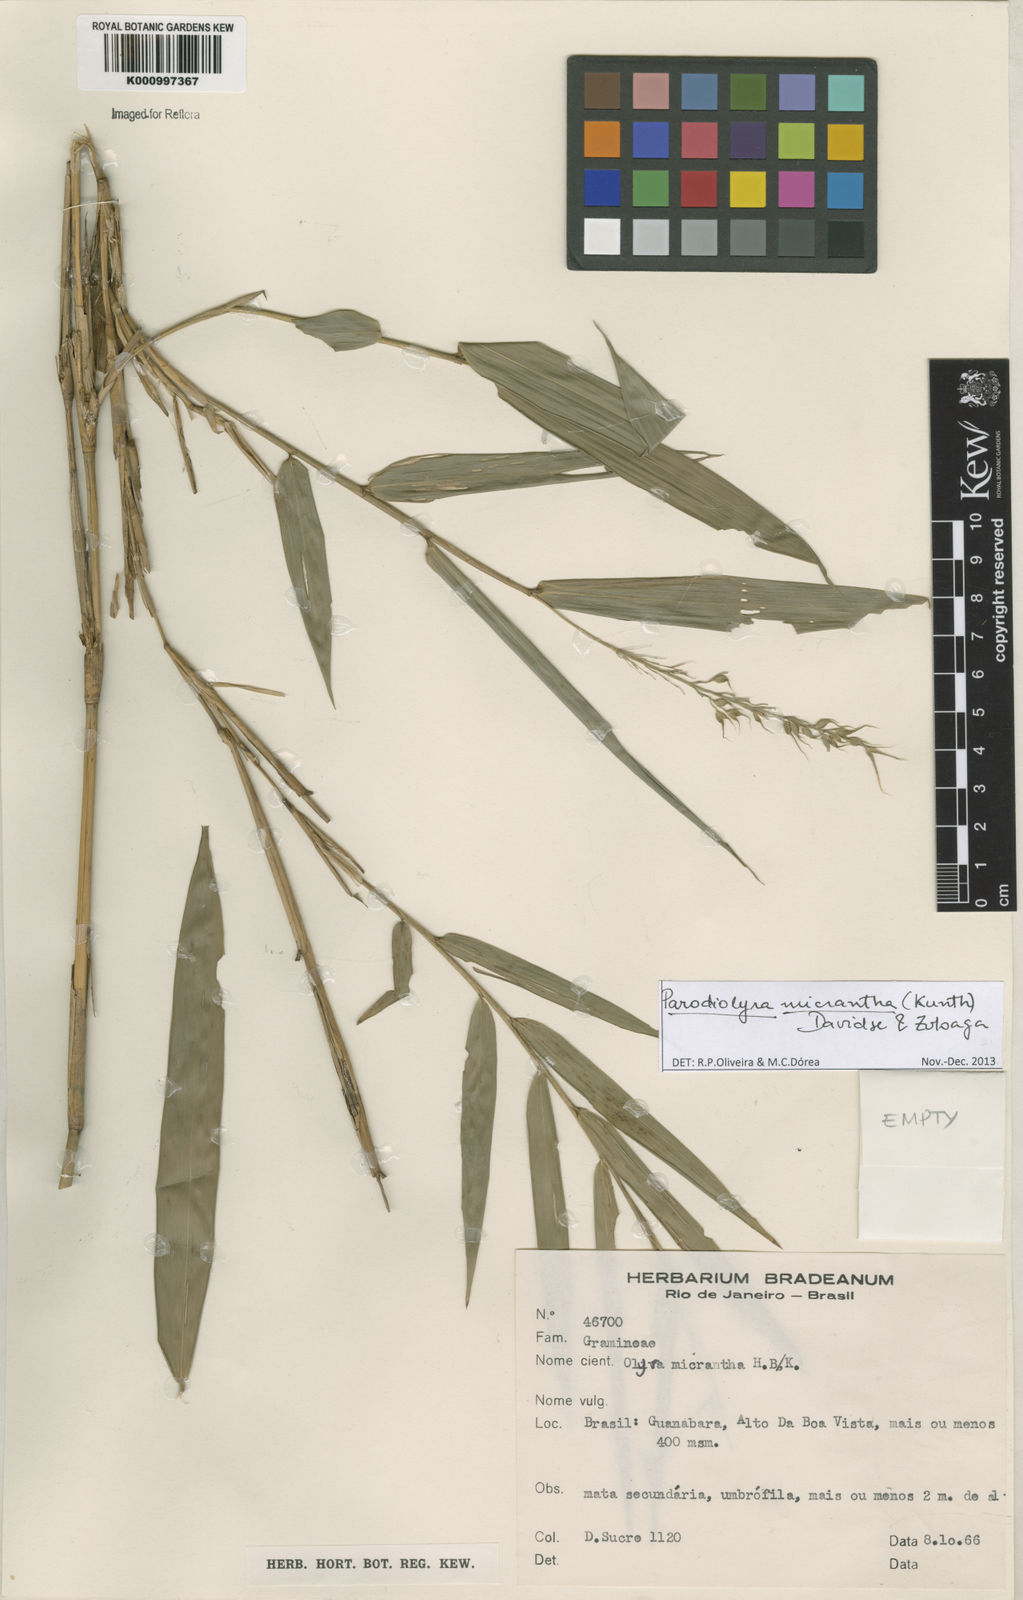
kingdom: Plantae
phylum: Tracheophyta
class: Liliopsida
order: Poales
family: Poaceae
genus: Taquara
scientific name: Taquara micrantha
